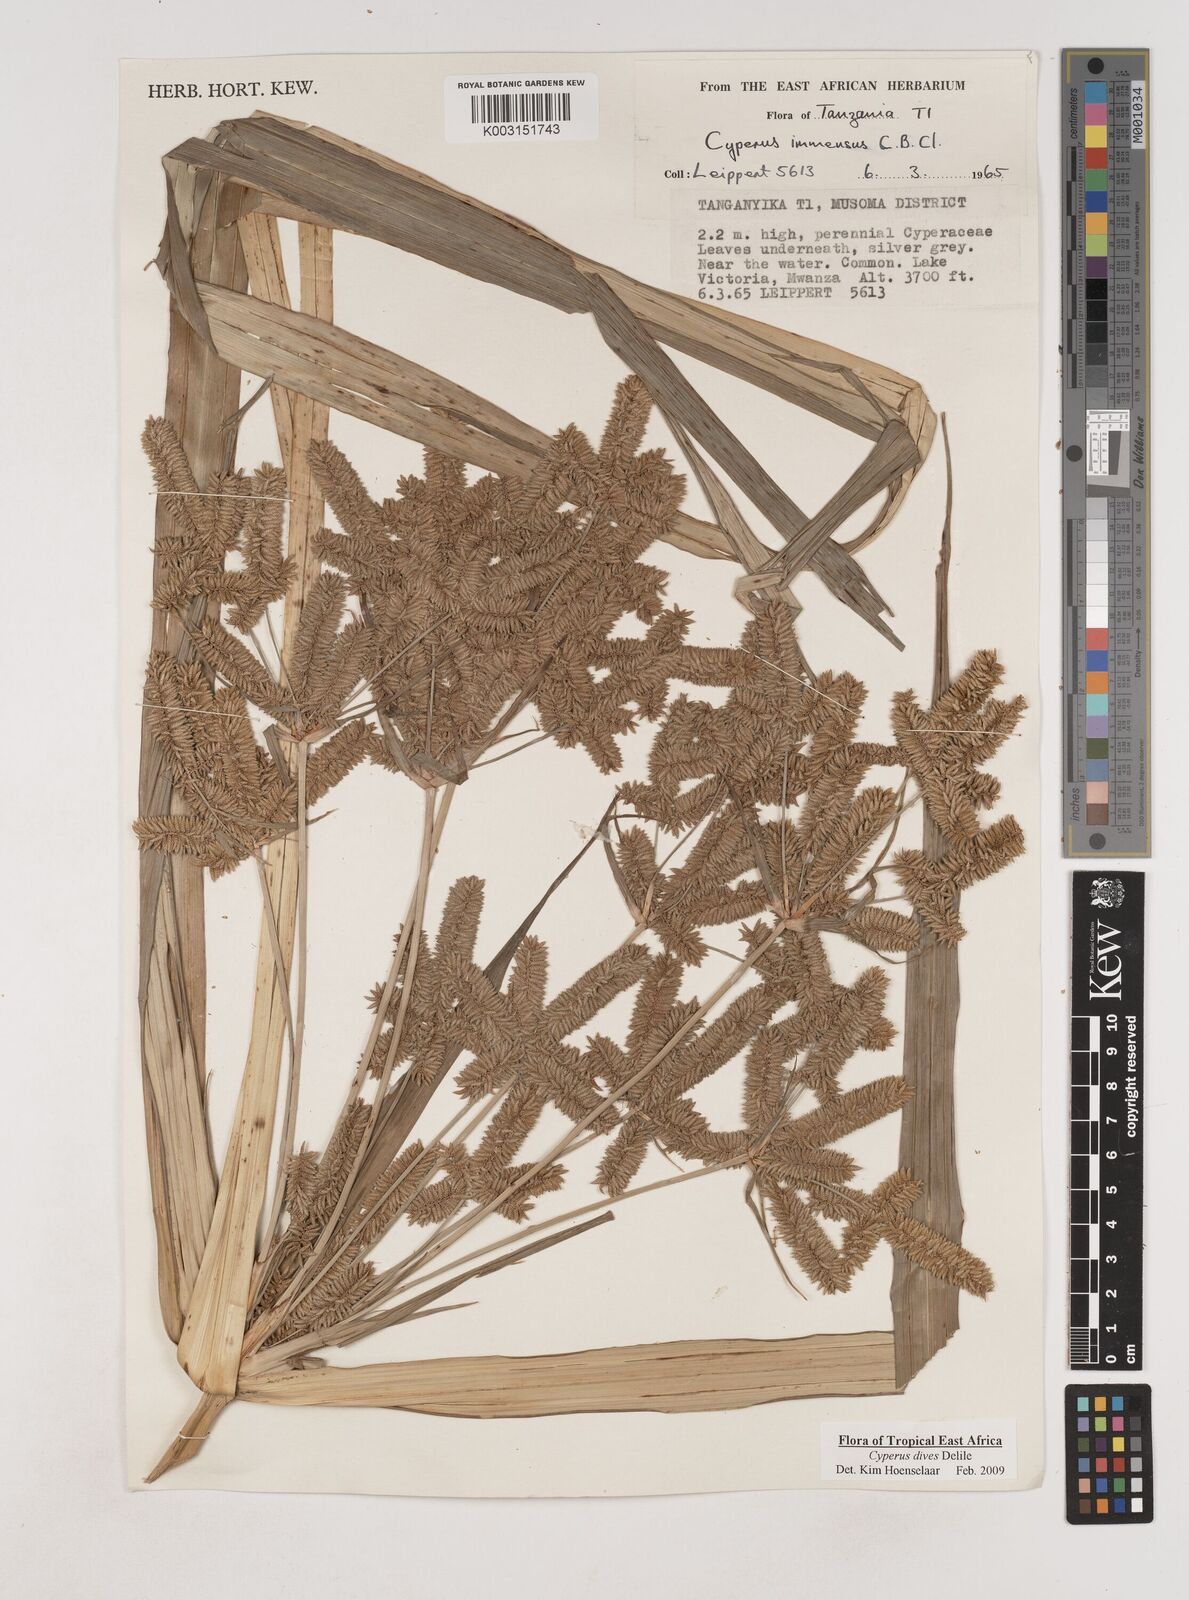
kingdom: Plantae
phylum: Tracheophyta
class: Liliopsida
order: Poales
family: Cyperaceae
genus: Cyperus
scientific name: Cyperus dives
